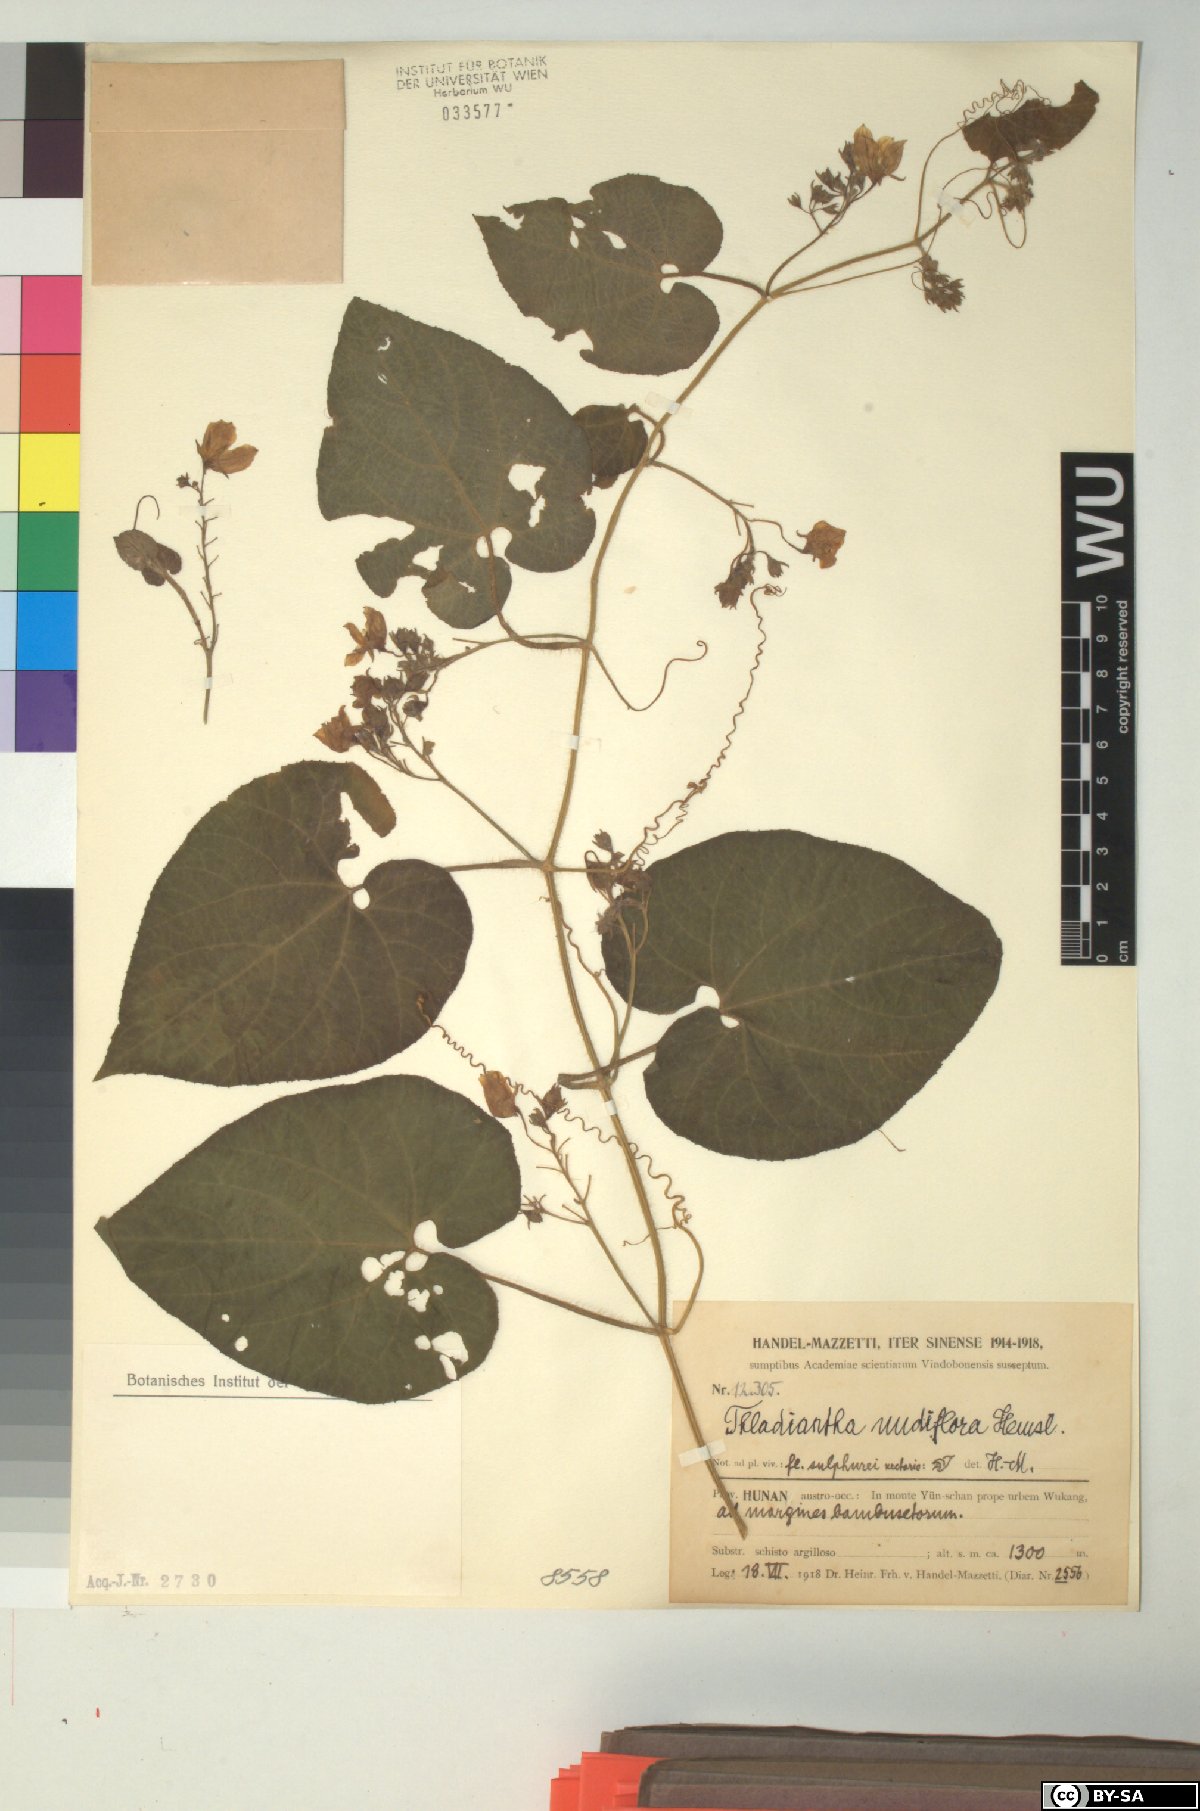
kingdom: Plantae
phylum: Tracheophyta
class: Magnoliopsida
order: Cucurbitales
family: Cucurbitaceae
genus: Thladiantha
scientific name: Thladiantha nudiflora
